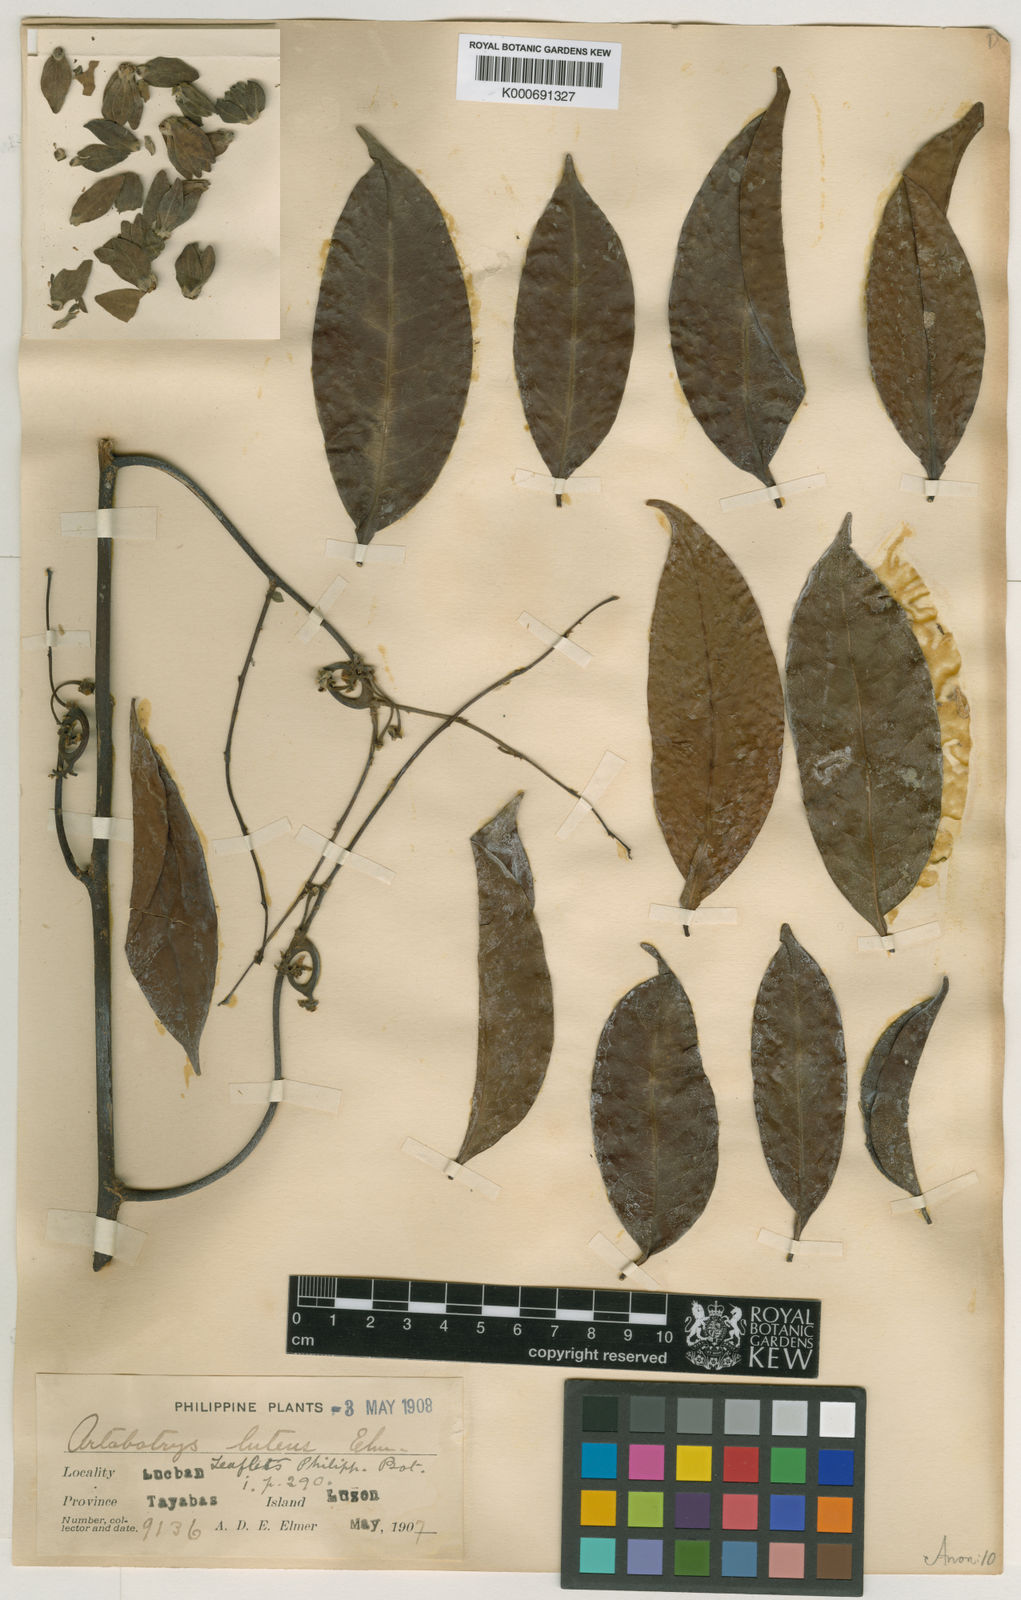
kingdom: Plantae
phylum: Tracheophyta
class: Magnoliopsida
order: Magnoliales
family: Annonaceae
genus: Artabotrys
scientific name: Artabotrys luteus
